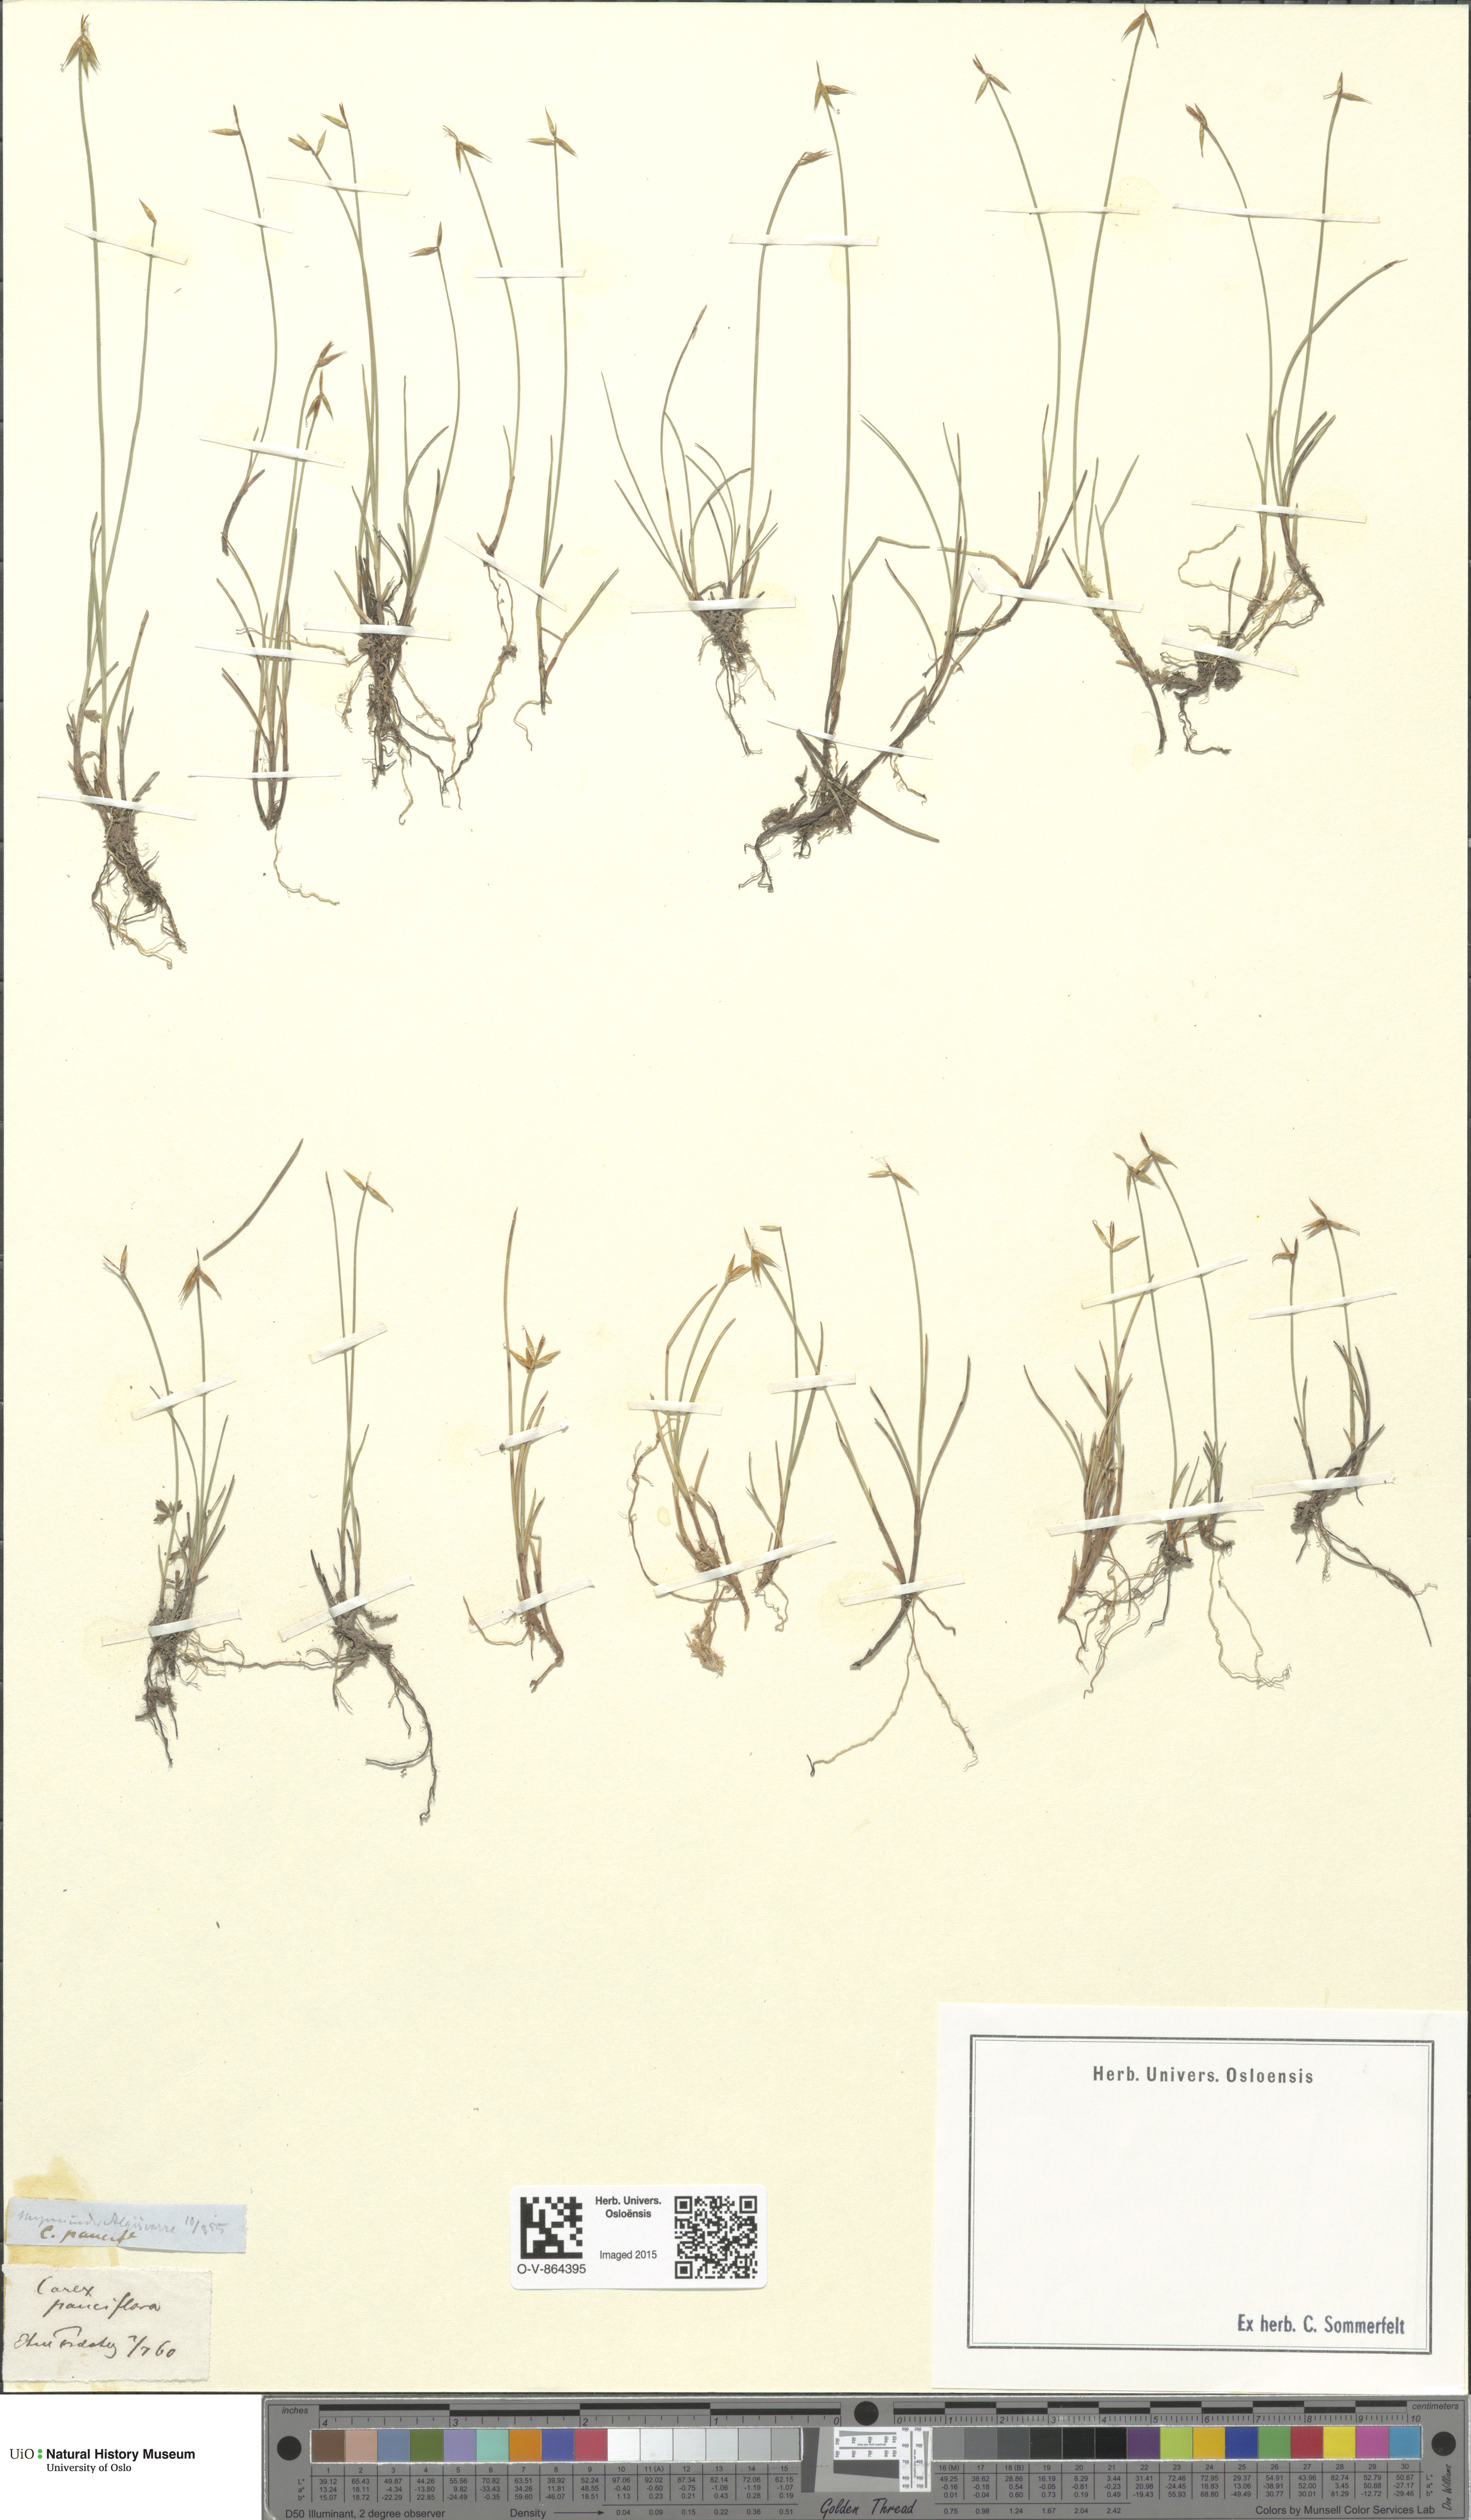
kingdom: Plantae
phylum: Tracheophyta
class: Liliopsida
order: Poales
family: Cyperaceae
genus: Carex
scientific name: Carex pauciflora
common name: Few-flowered sedge
